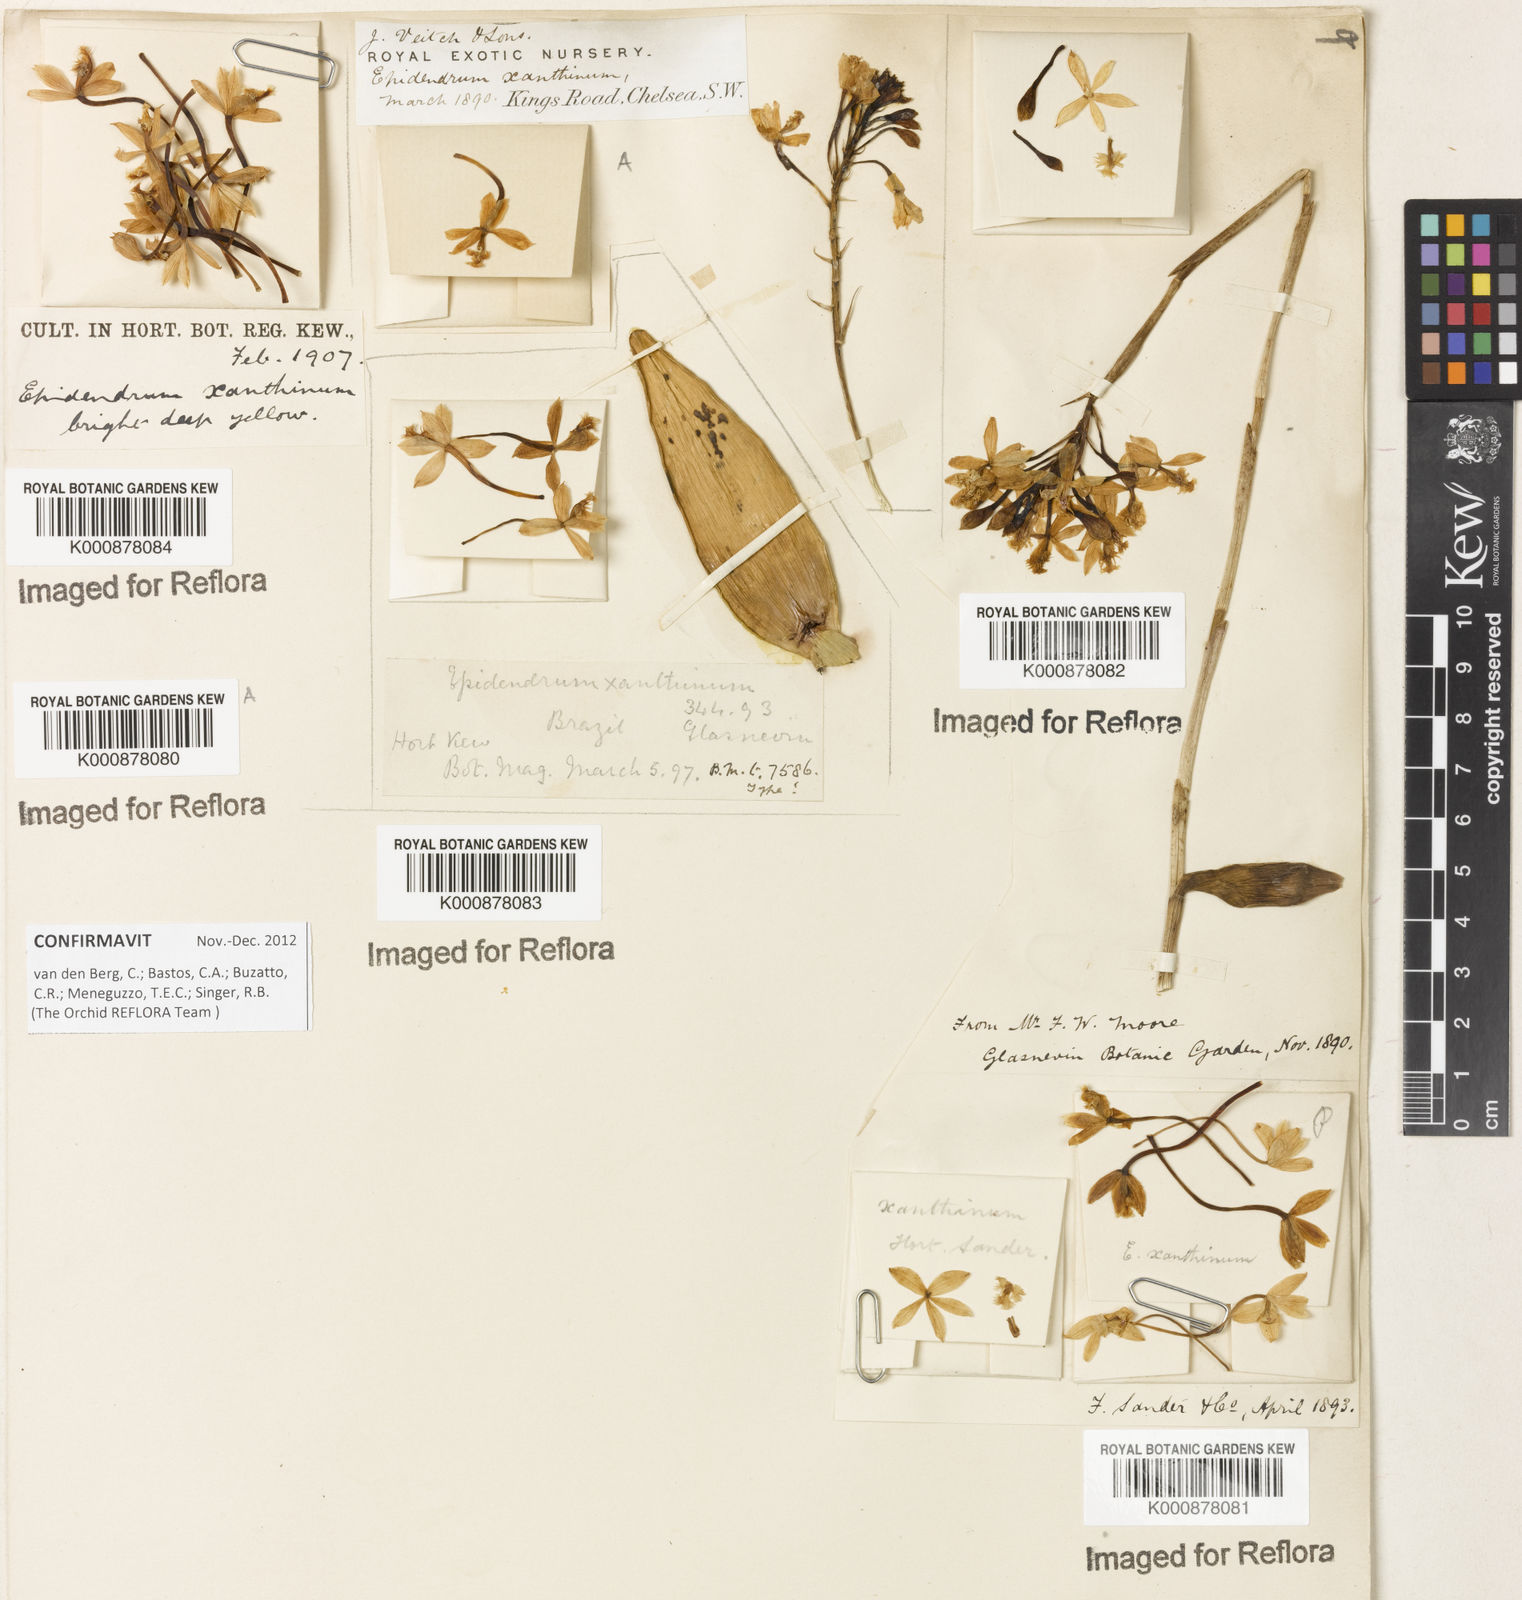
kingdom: Plantae
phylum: Tracheophyta
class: Liliopsida
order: Asparagales
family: Orchidaceae
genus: Epidendrum
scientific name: Epidendrum xanthinum
